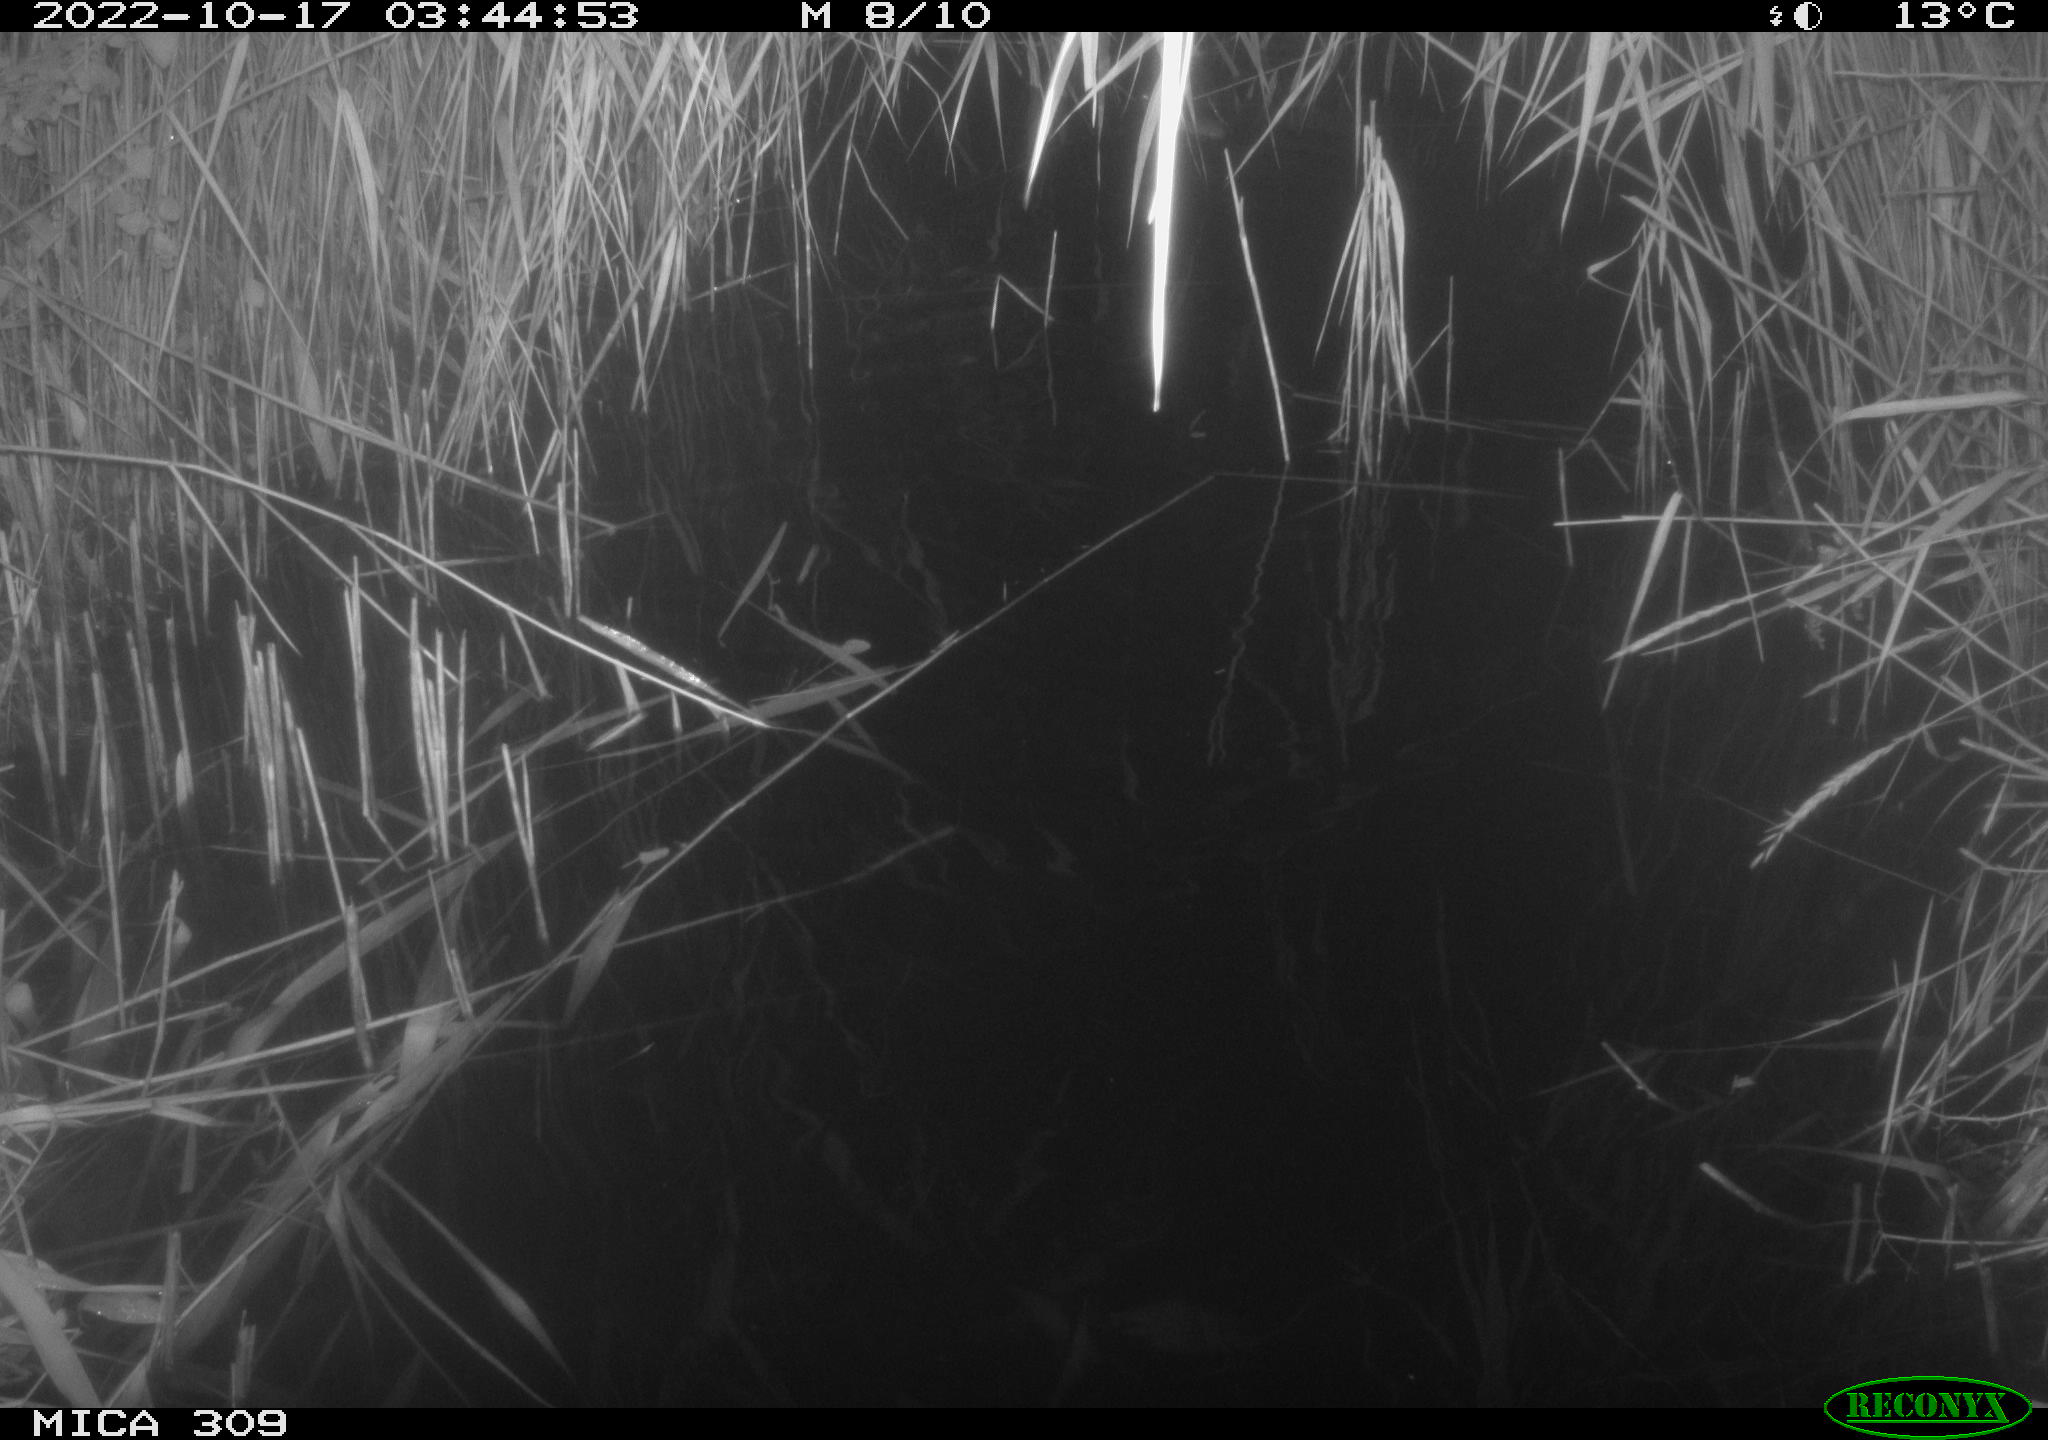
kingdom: Animalia
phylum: Chordata
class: Mammalia
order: Rodentia
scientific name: Rodentia
